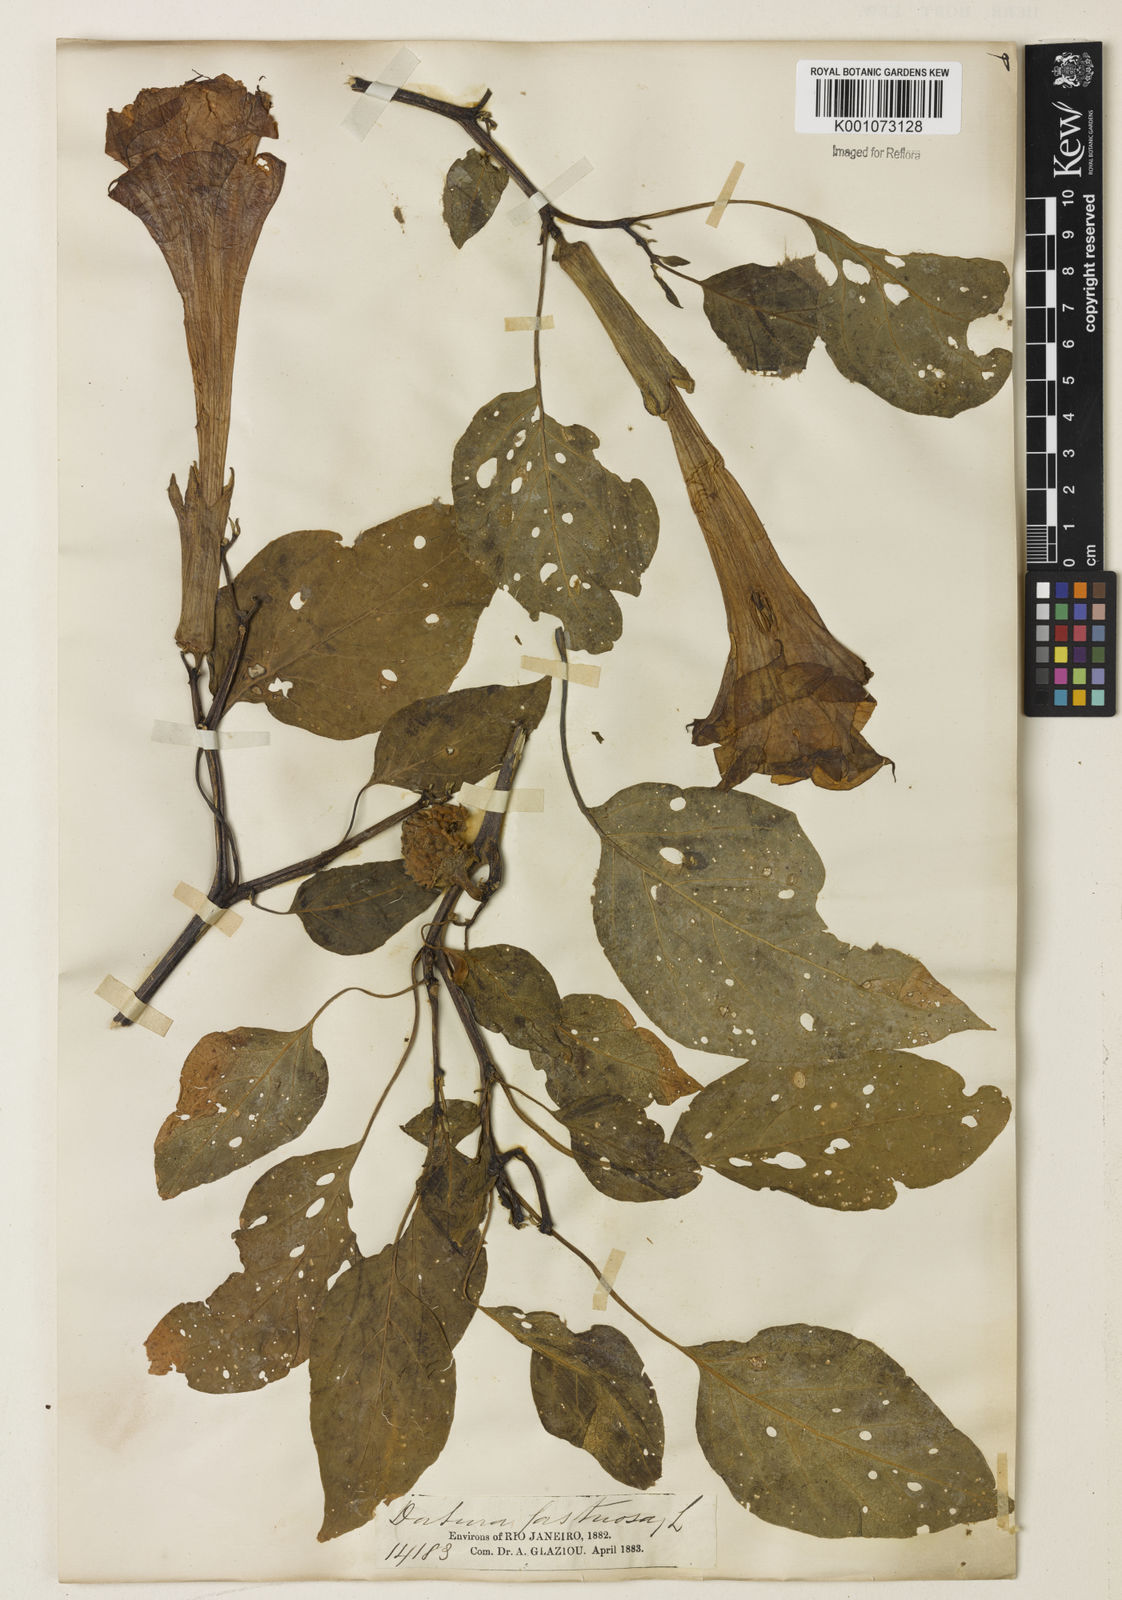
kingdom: Plantae
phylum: Tracheophyta
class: Magnoliopsida
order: Solanales
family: Solanaceae
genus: Datura
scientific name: Datura metel
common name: Jimsonweed
